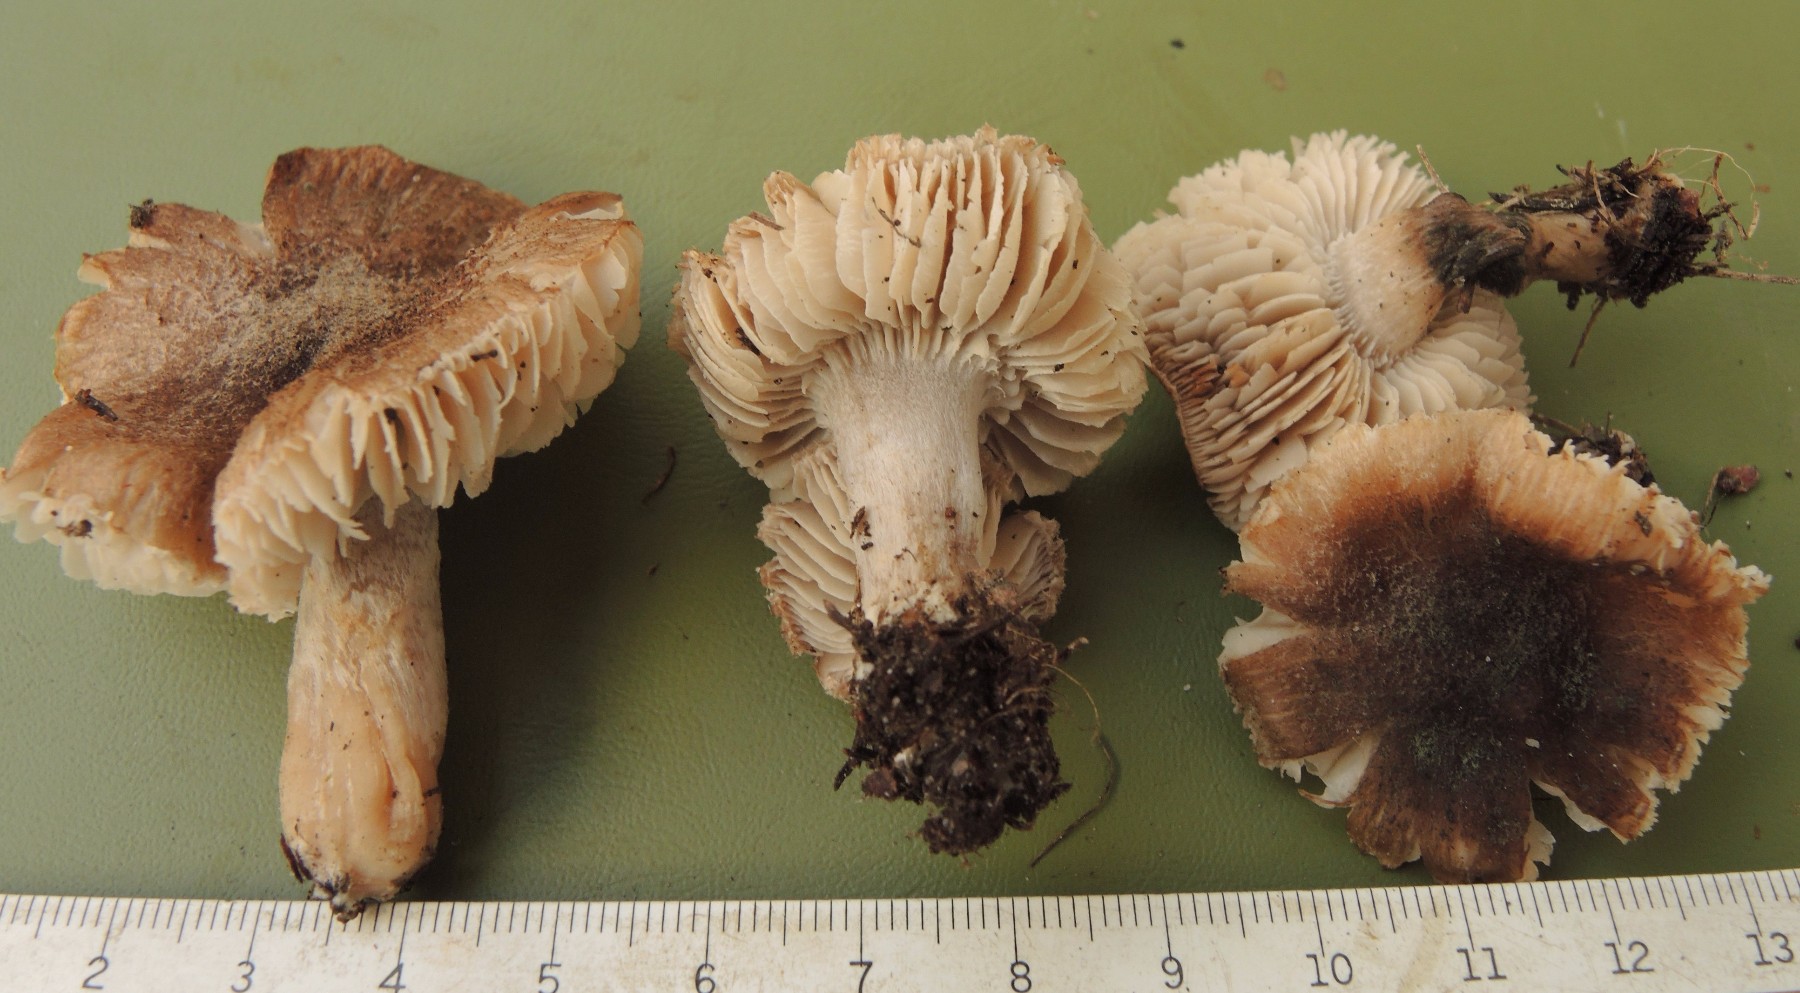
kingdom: Fungi
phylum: Basidiomycota
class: Agaricomycetes
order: Agaricales
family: Tricholomataceae
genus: Tricholoma
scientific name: Tricholoma terreum
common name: jordfarvet ridderhat
